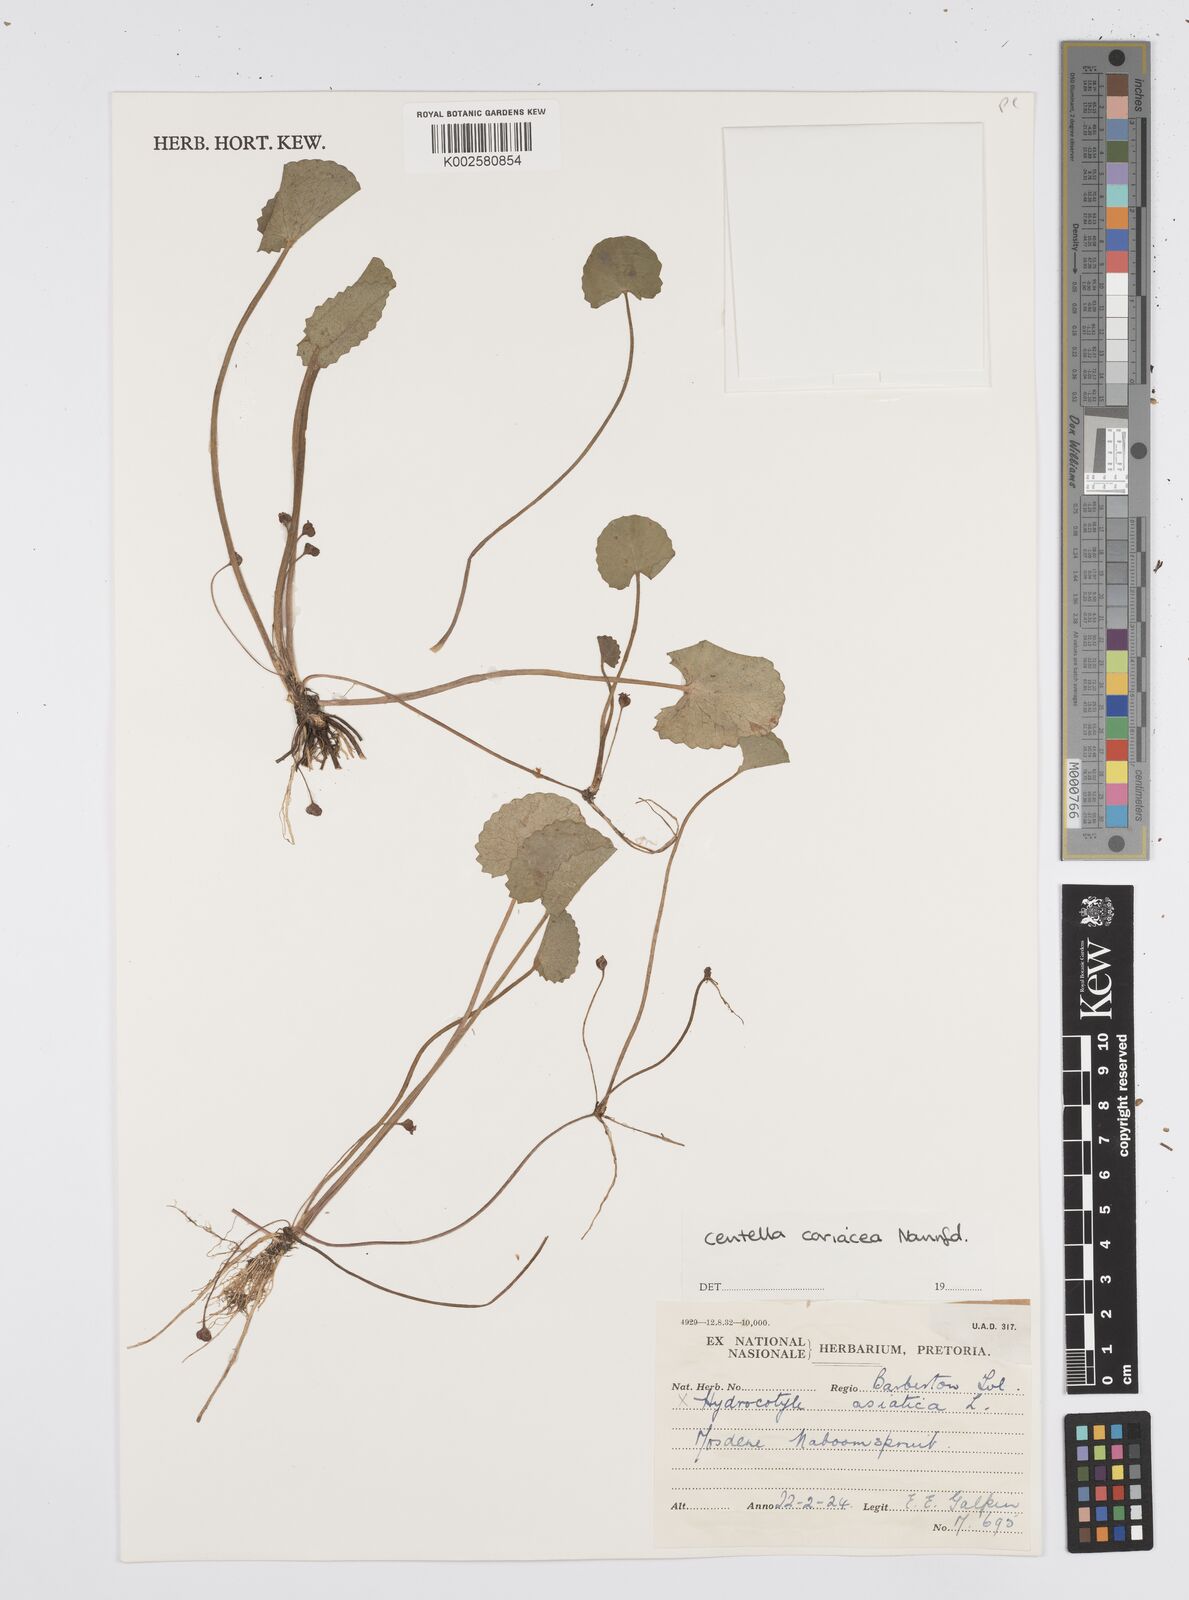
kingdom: Plantae
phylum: Tracheophyta
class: Magnoliopsida
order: Apiales
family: Apiaceae
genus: Centella
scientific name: Centella coriacea
